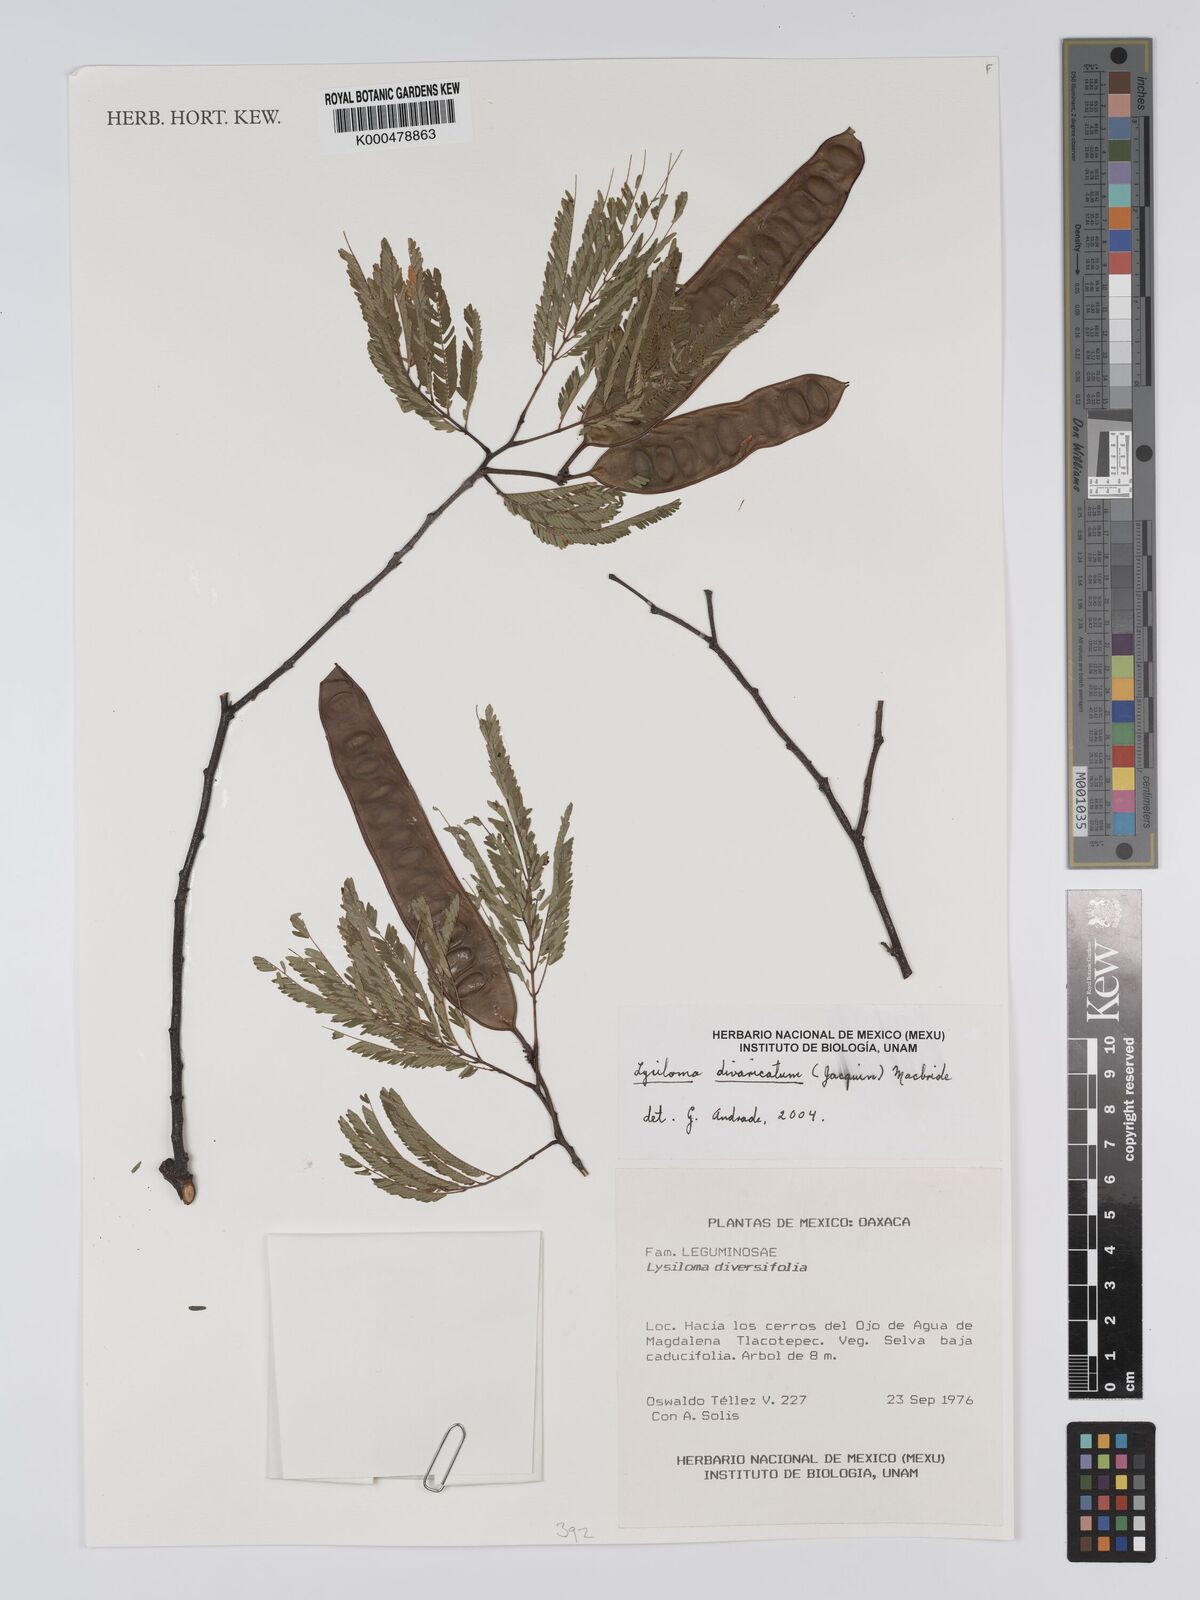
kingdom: Plantae
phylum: Tracheophyta
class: Magnoliopsida
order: Fabales
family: Fabaceae
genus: Lysiloma
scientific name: Lysiloma divaricatum
